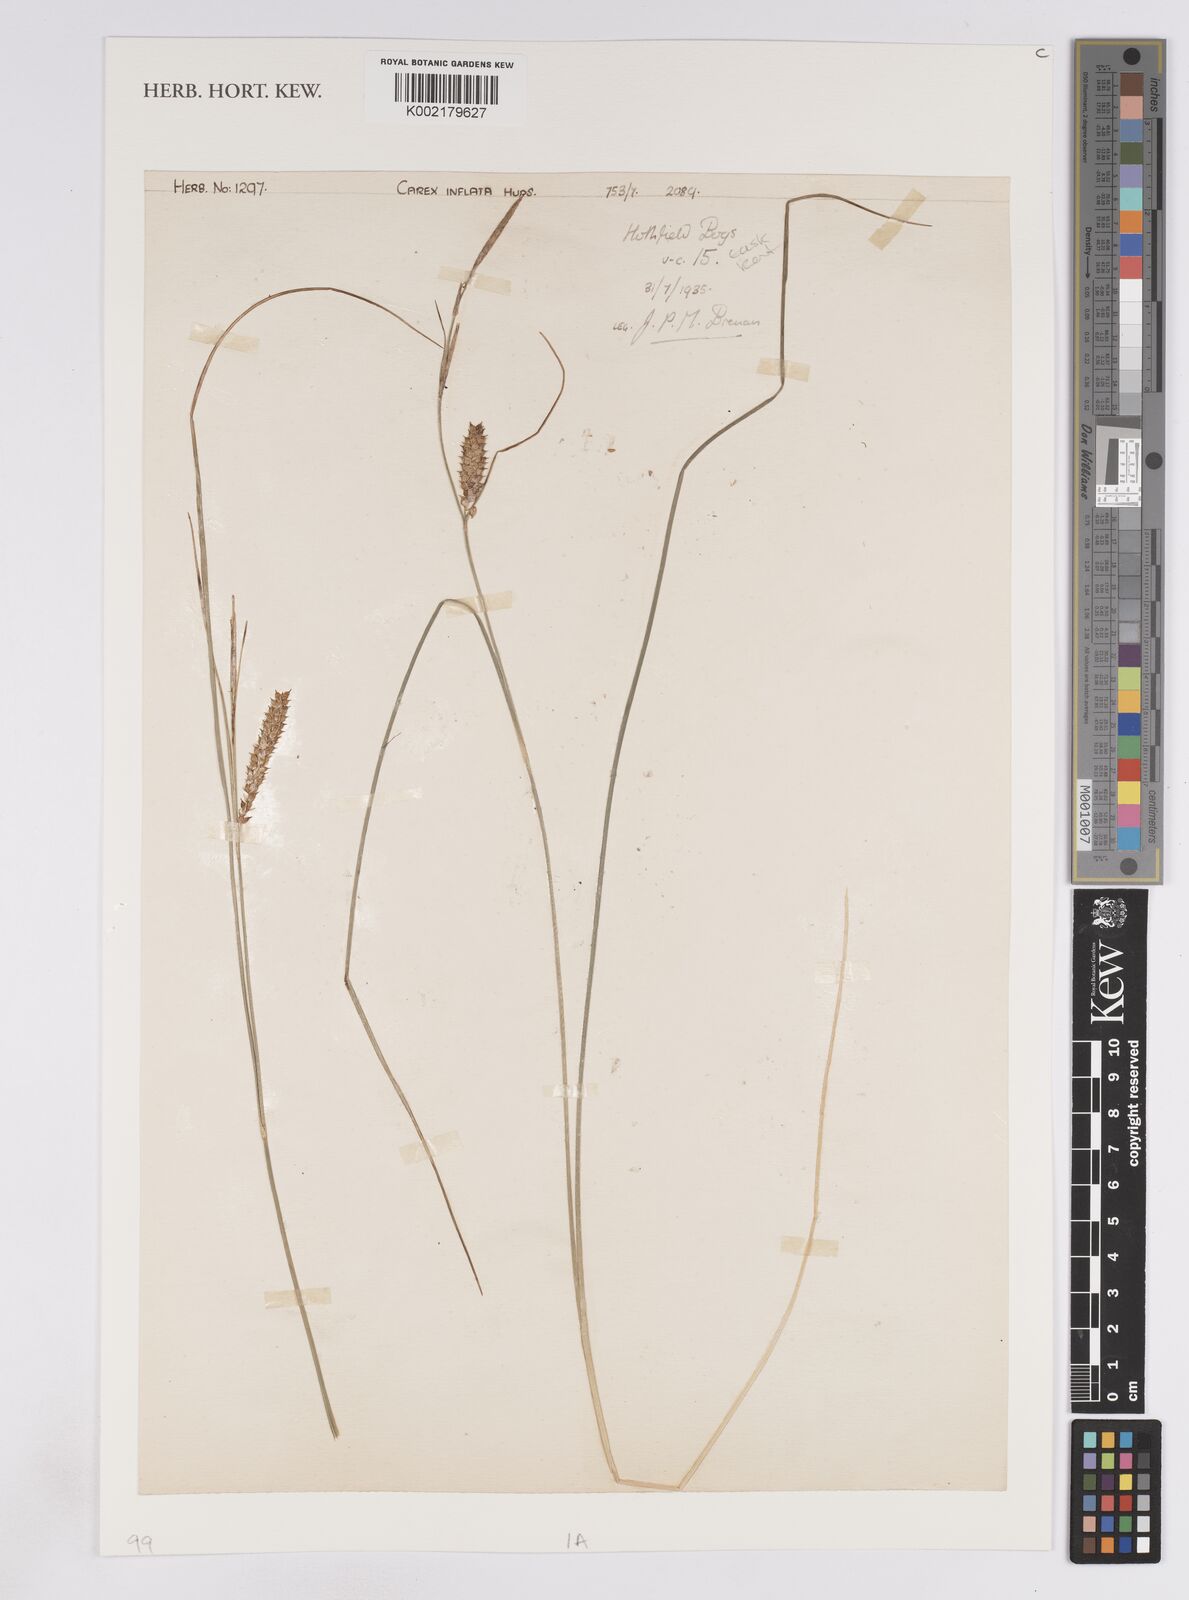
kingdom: Plantae
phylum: Tracheophyta
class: Liliopsida
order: Poales
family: Cyperaceae
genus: Carex
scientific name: Carex rostrata
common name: Bottle sedge
